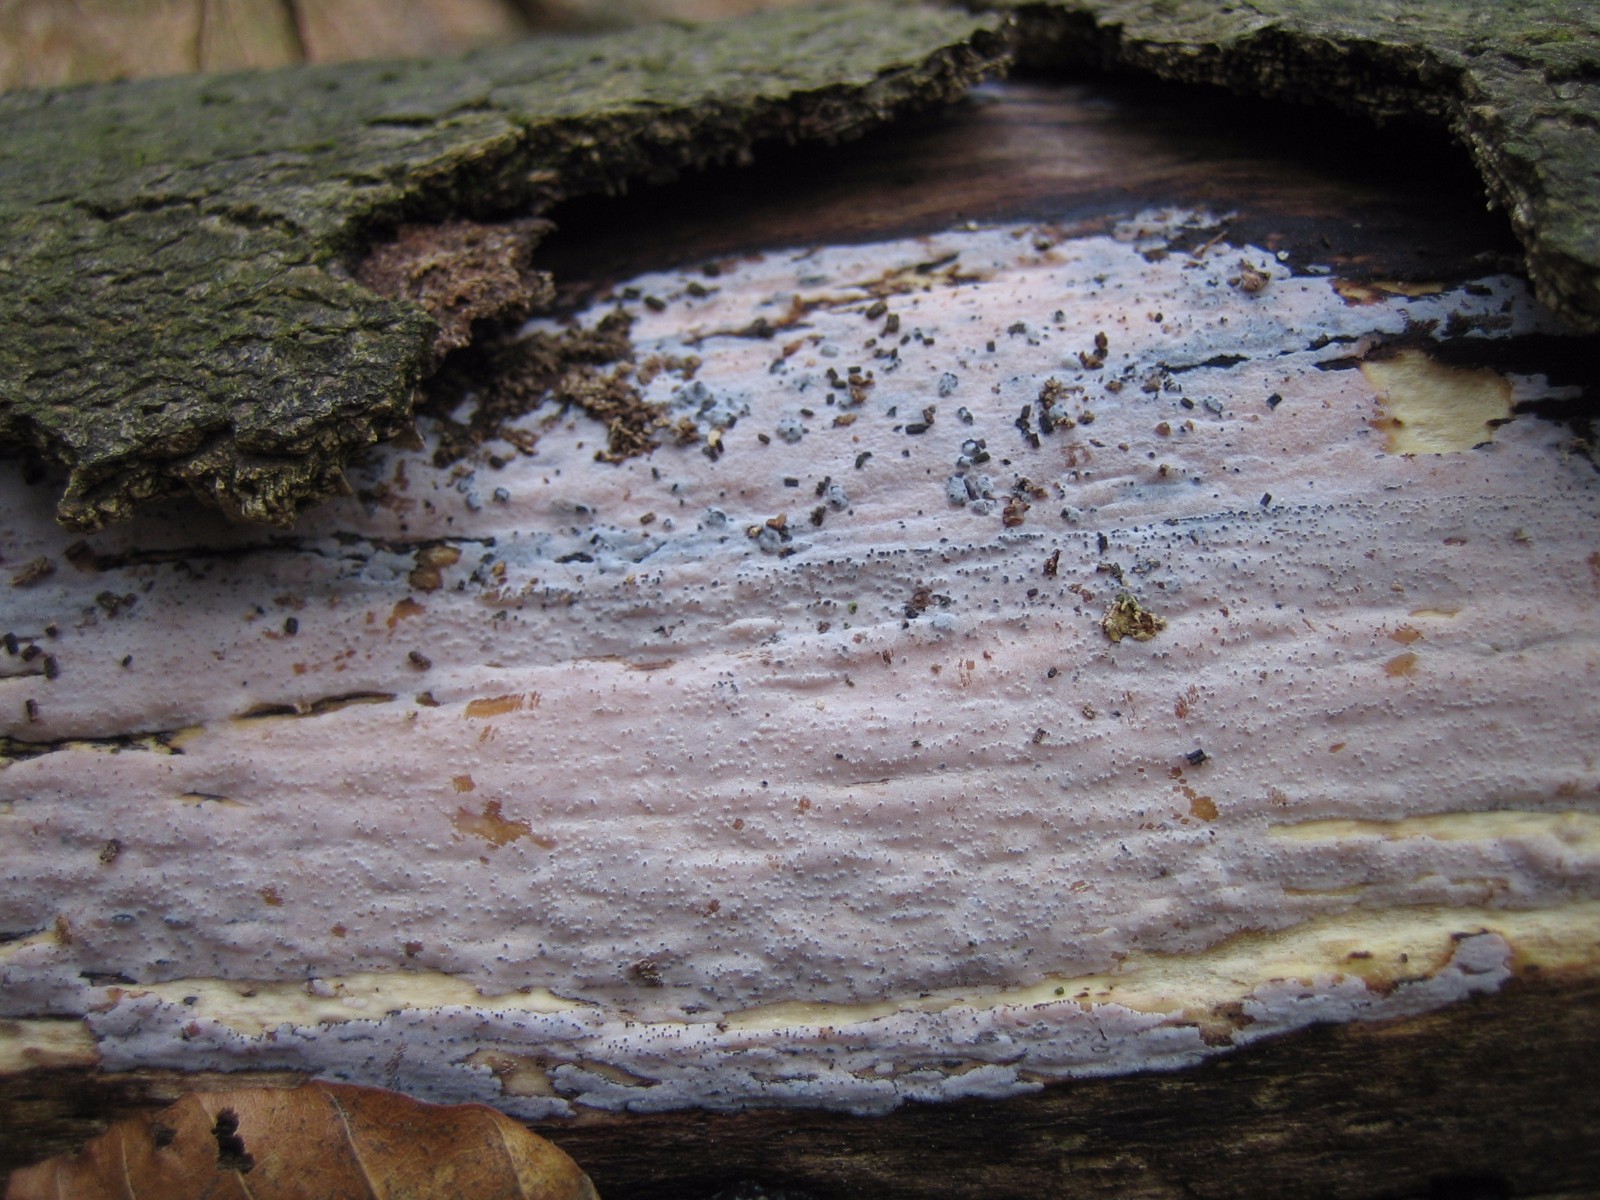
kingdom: Fungi
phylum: Basidiomycota
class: Tremellomycetes
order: Tremellales
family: Exidiaceae
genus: Exidiopsis
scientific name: Exidiopsis effusa
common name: smuk bævrehinde
